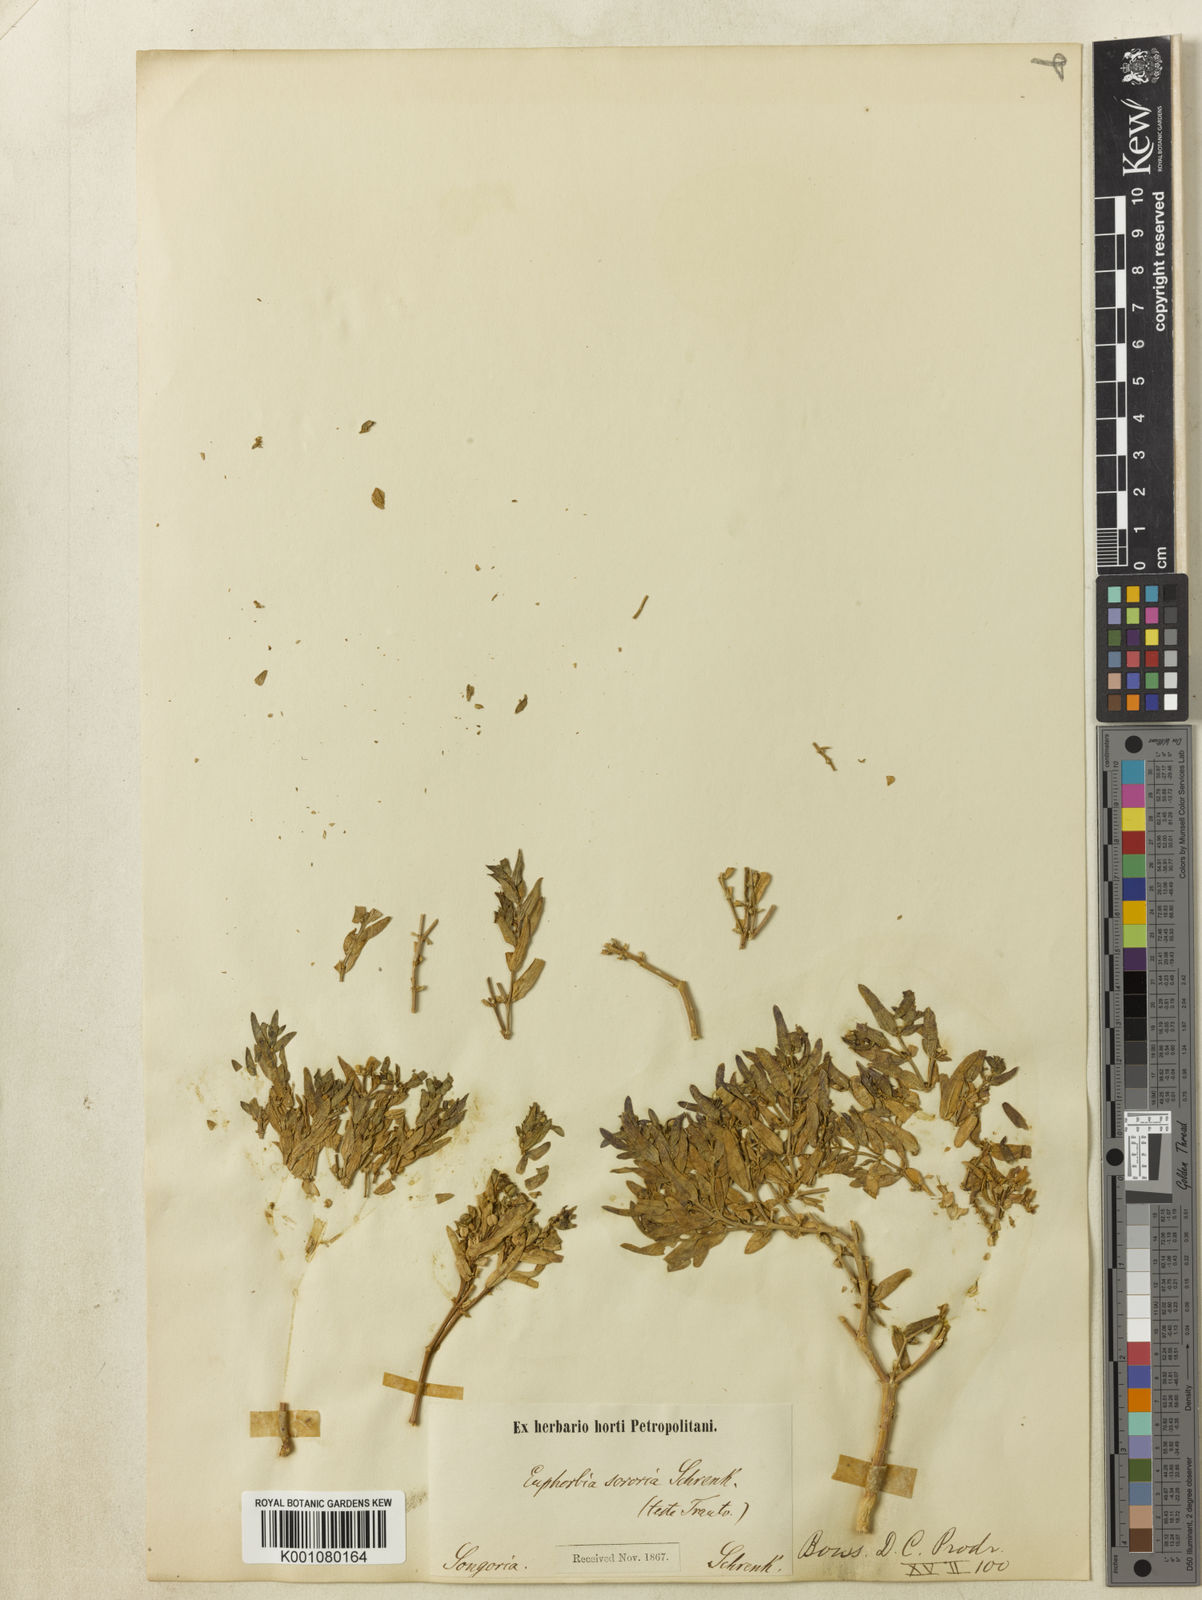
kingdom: Plantae
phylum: Tracheophyta
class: Magnoliopsida
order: Malpighiales
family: Euphorbiaceae
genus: Euphorbia
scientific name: Euphorbia sororia
